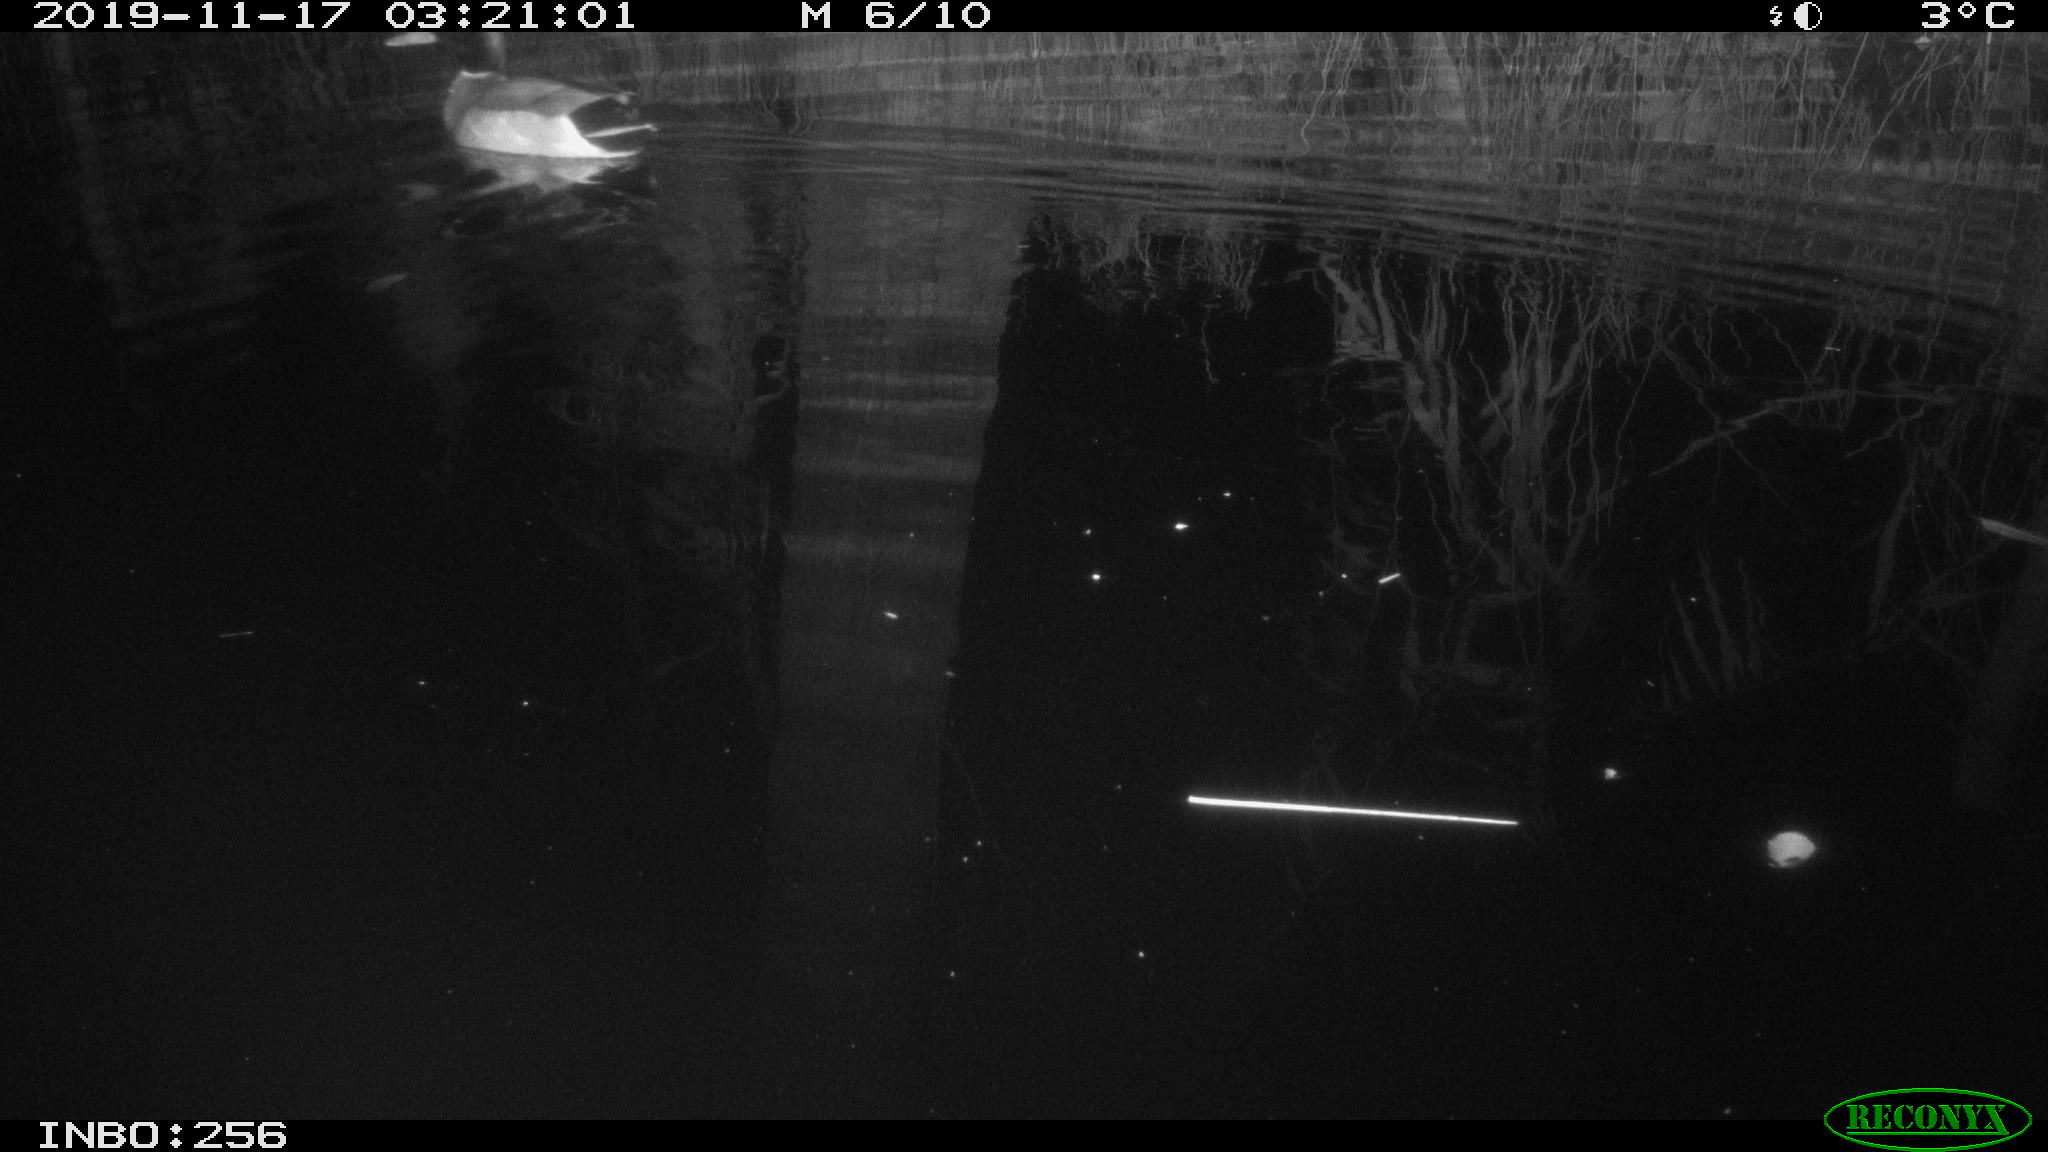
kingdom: Animalia
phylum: Chordata
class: Aves
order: Anseriformes
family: Anatidae
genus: Anas
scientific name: Anas platyrhynchos
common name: Mallard
